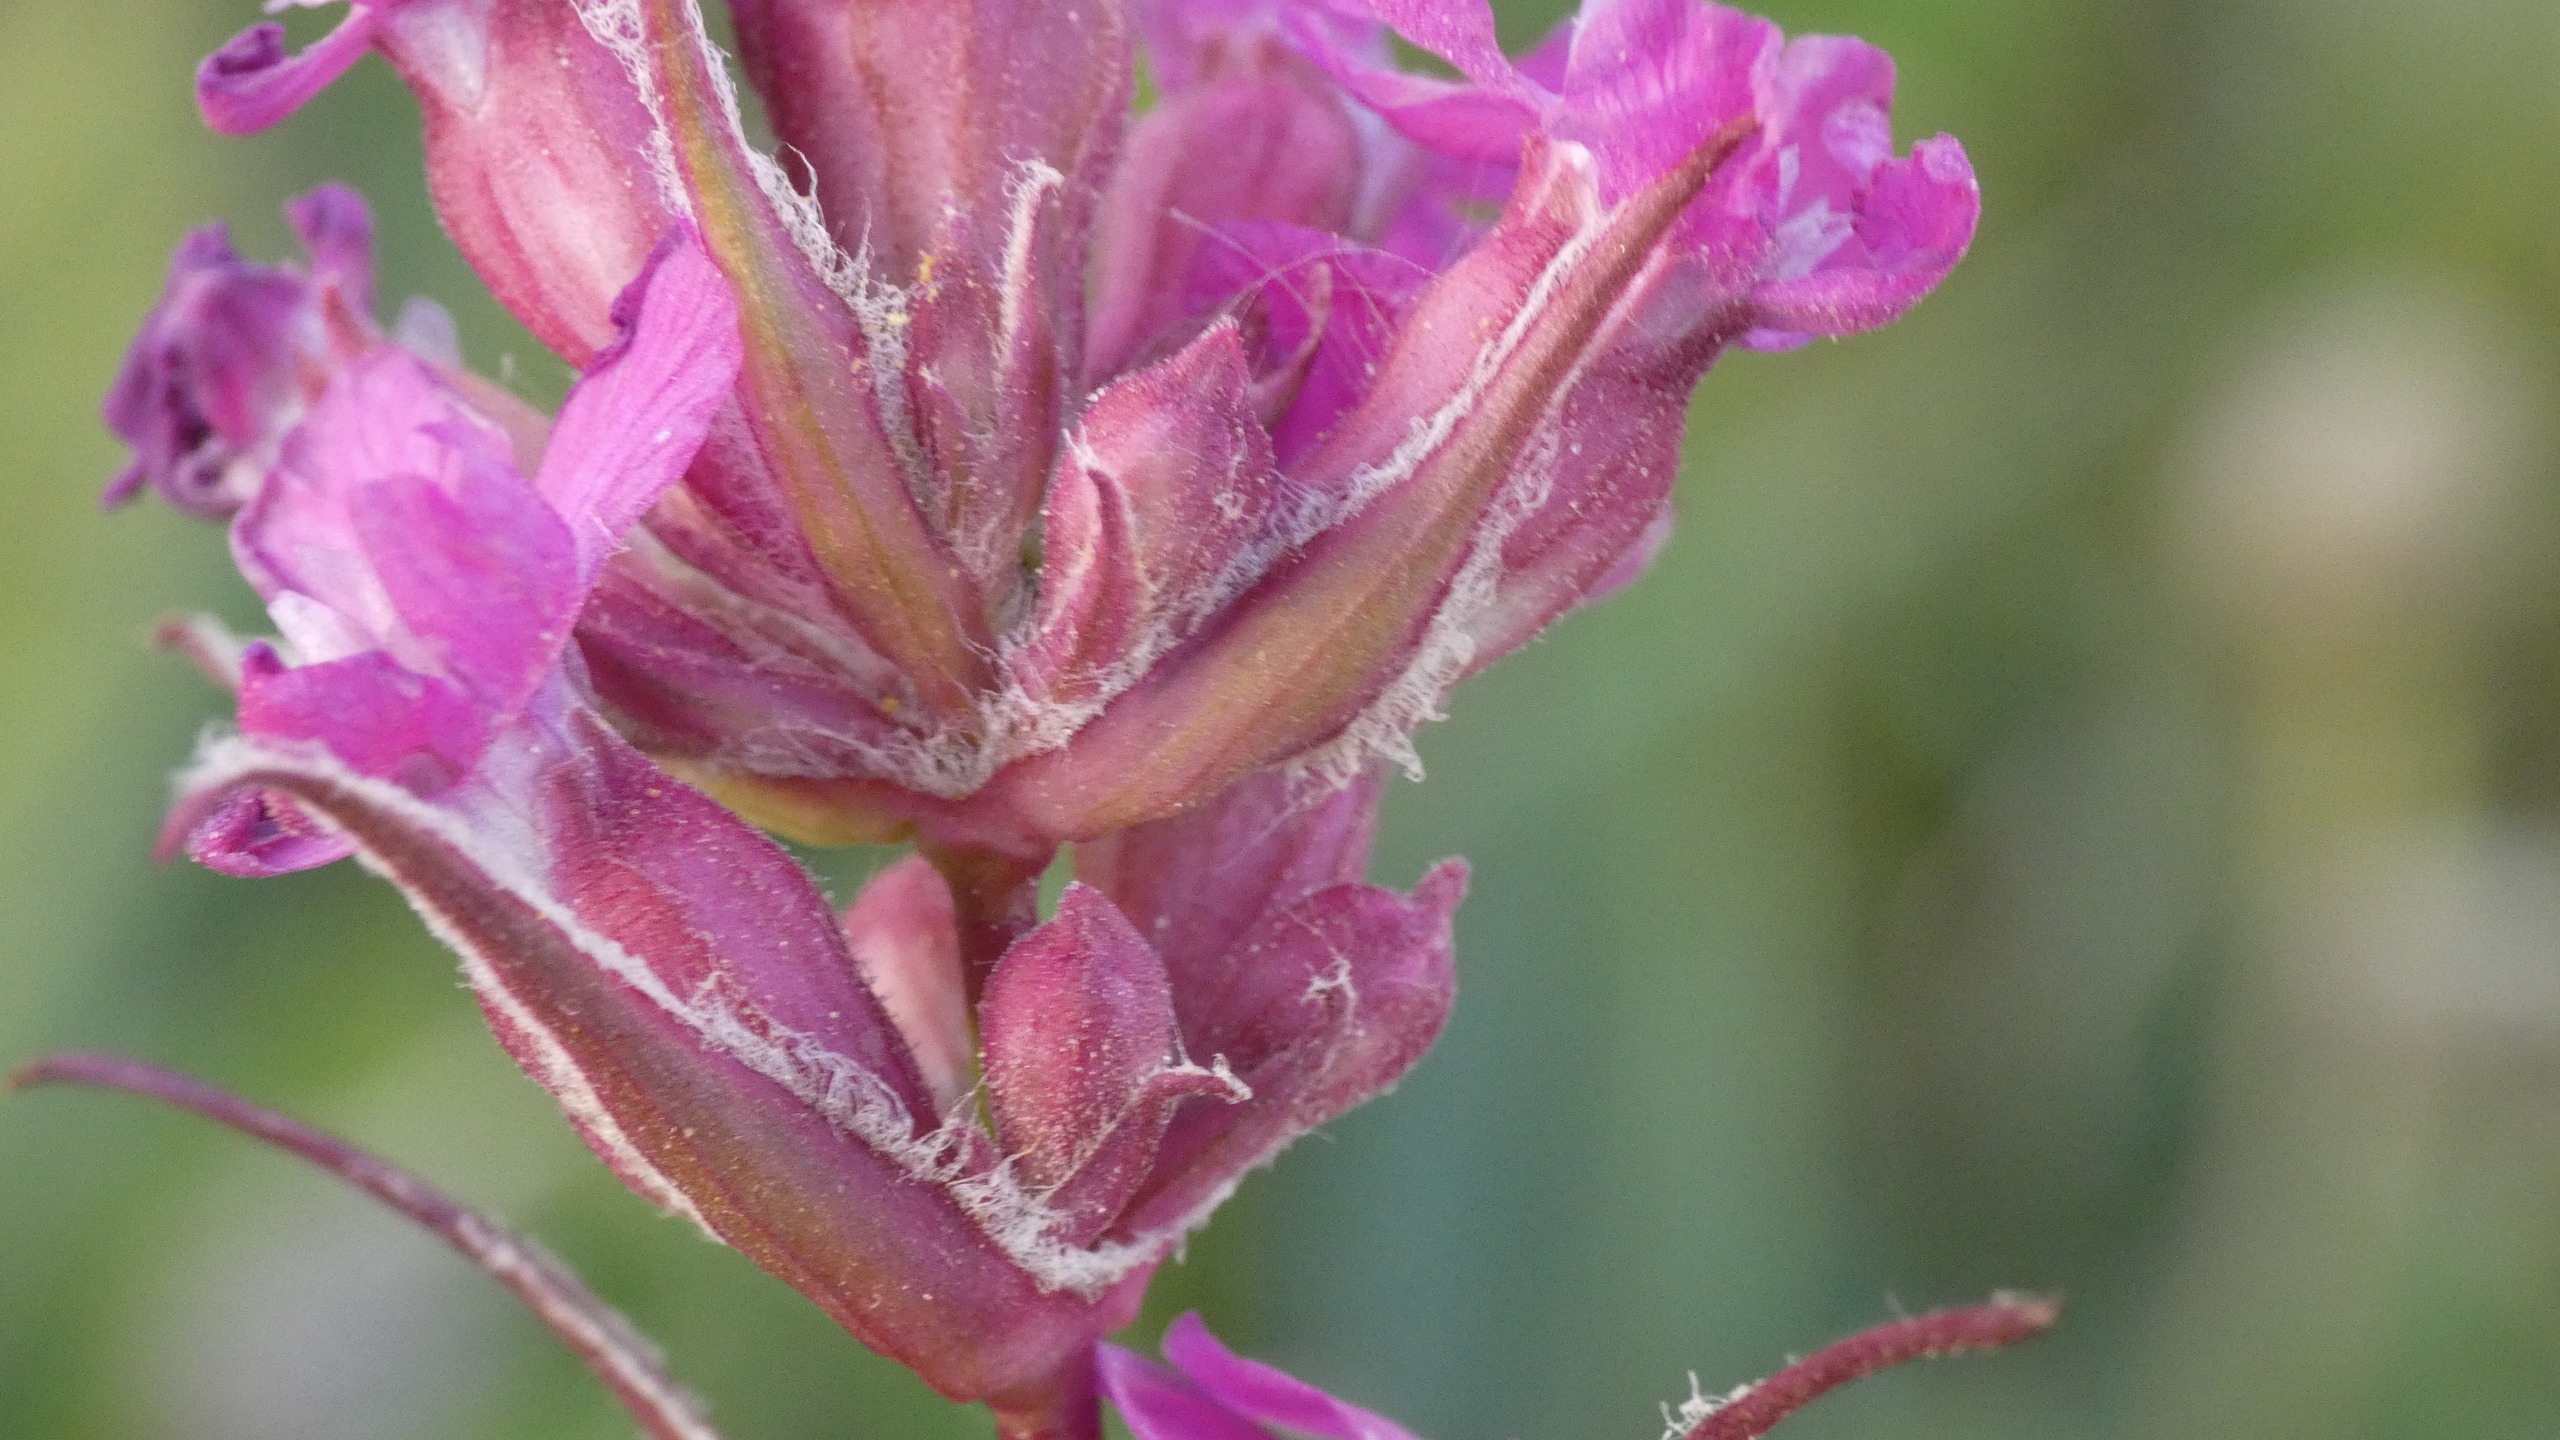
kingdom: Plantae
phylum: Tracheophyta
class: Magnoliopsida
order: Caryophyllales
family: Caryophyllaceae
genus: Viscaria
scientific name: Viscaria vulgaris
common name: Tjærenellike
